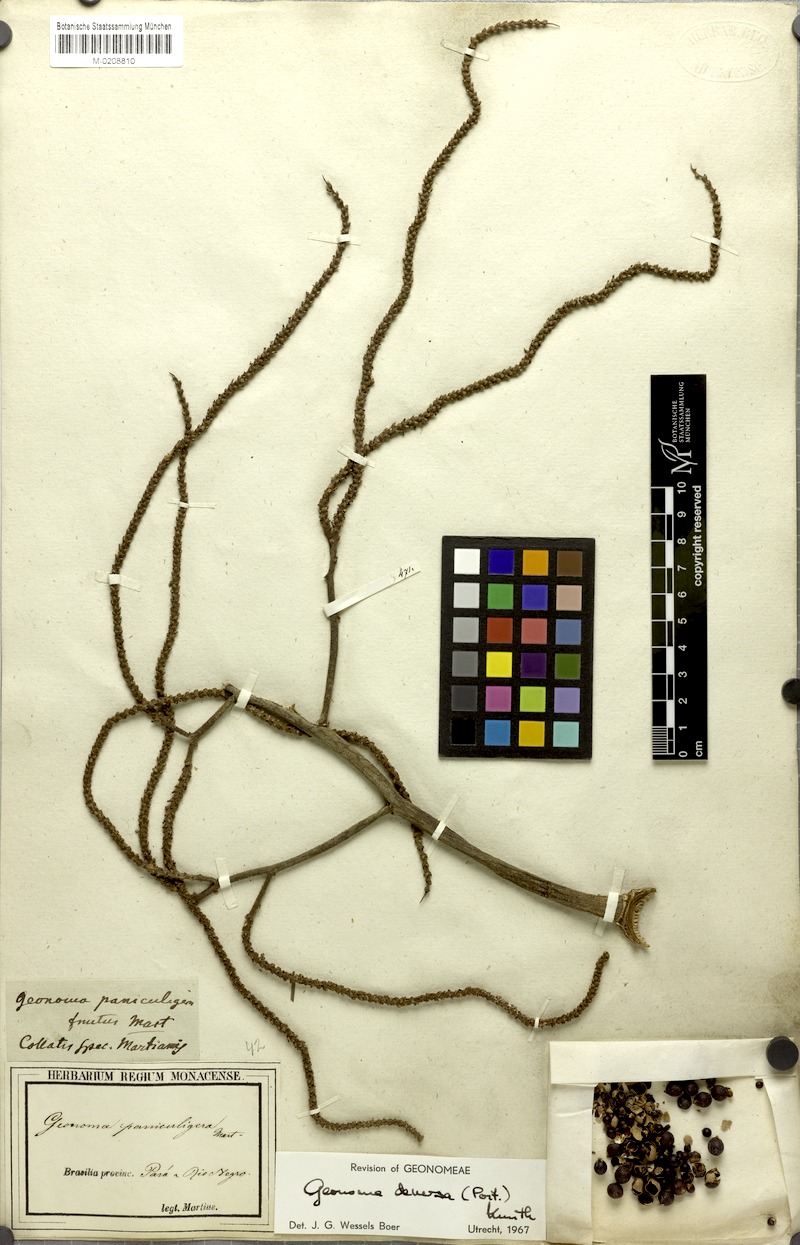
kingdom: Plantae
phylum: Tracheophyta
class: Liliopsida
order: Arecales
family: Arecaceae
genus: Geonoma
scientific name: Geonoma deversa
